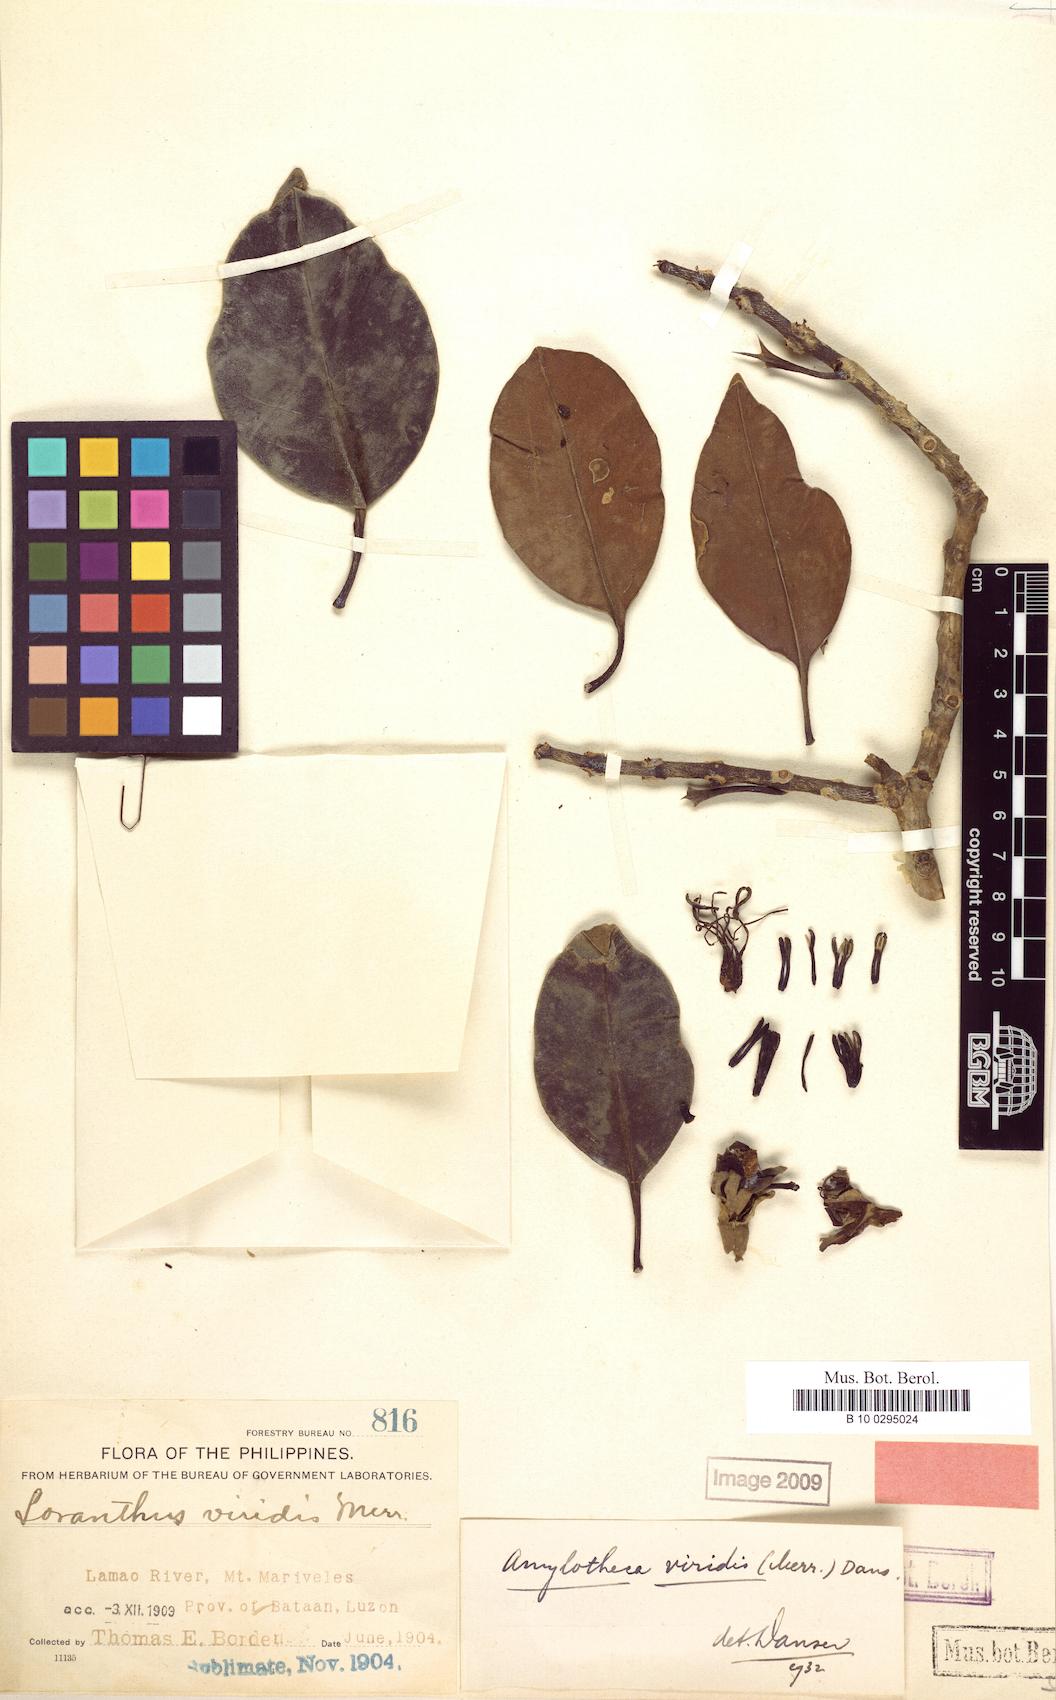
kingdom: Plantae
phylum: Tracheophyta
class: Magnoliopsida
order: Santalales
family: Loranthaceae
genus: Decaisnina
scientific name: Decaisnina viridis
